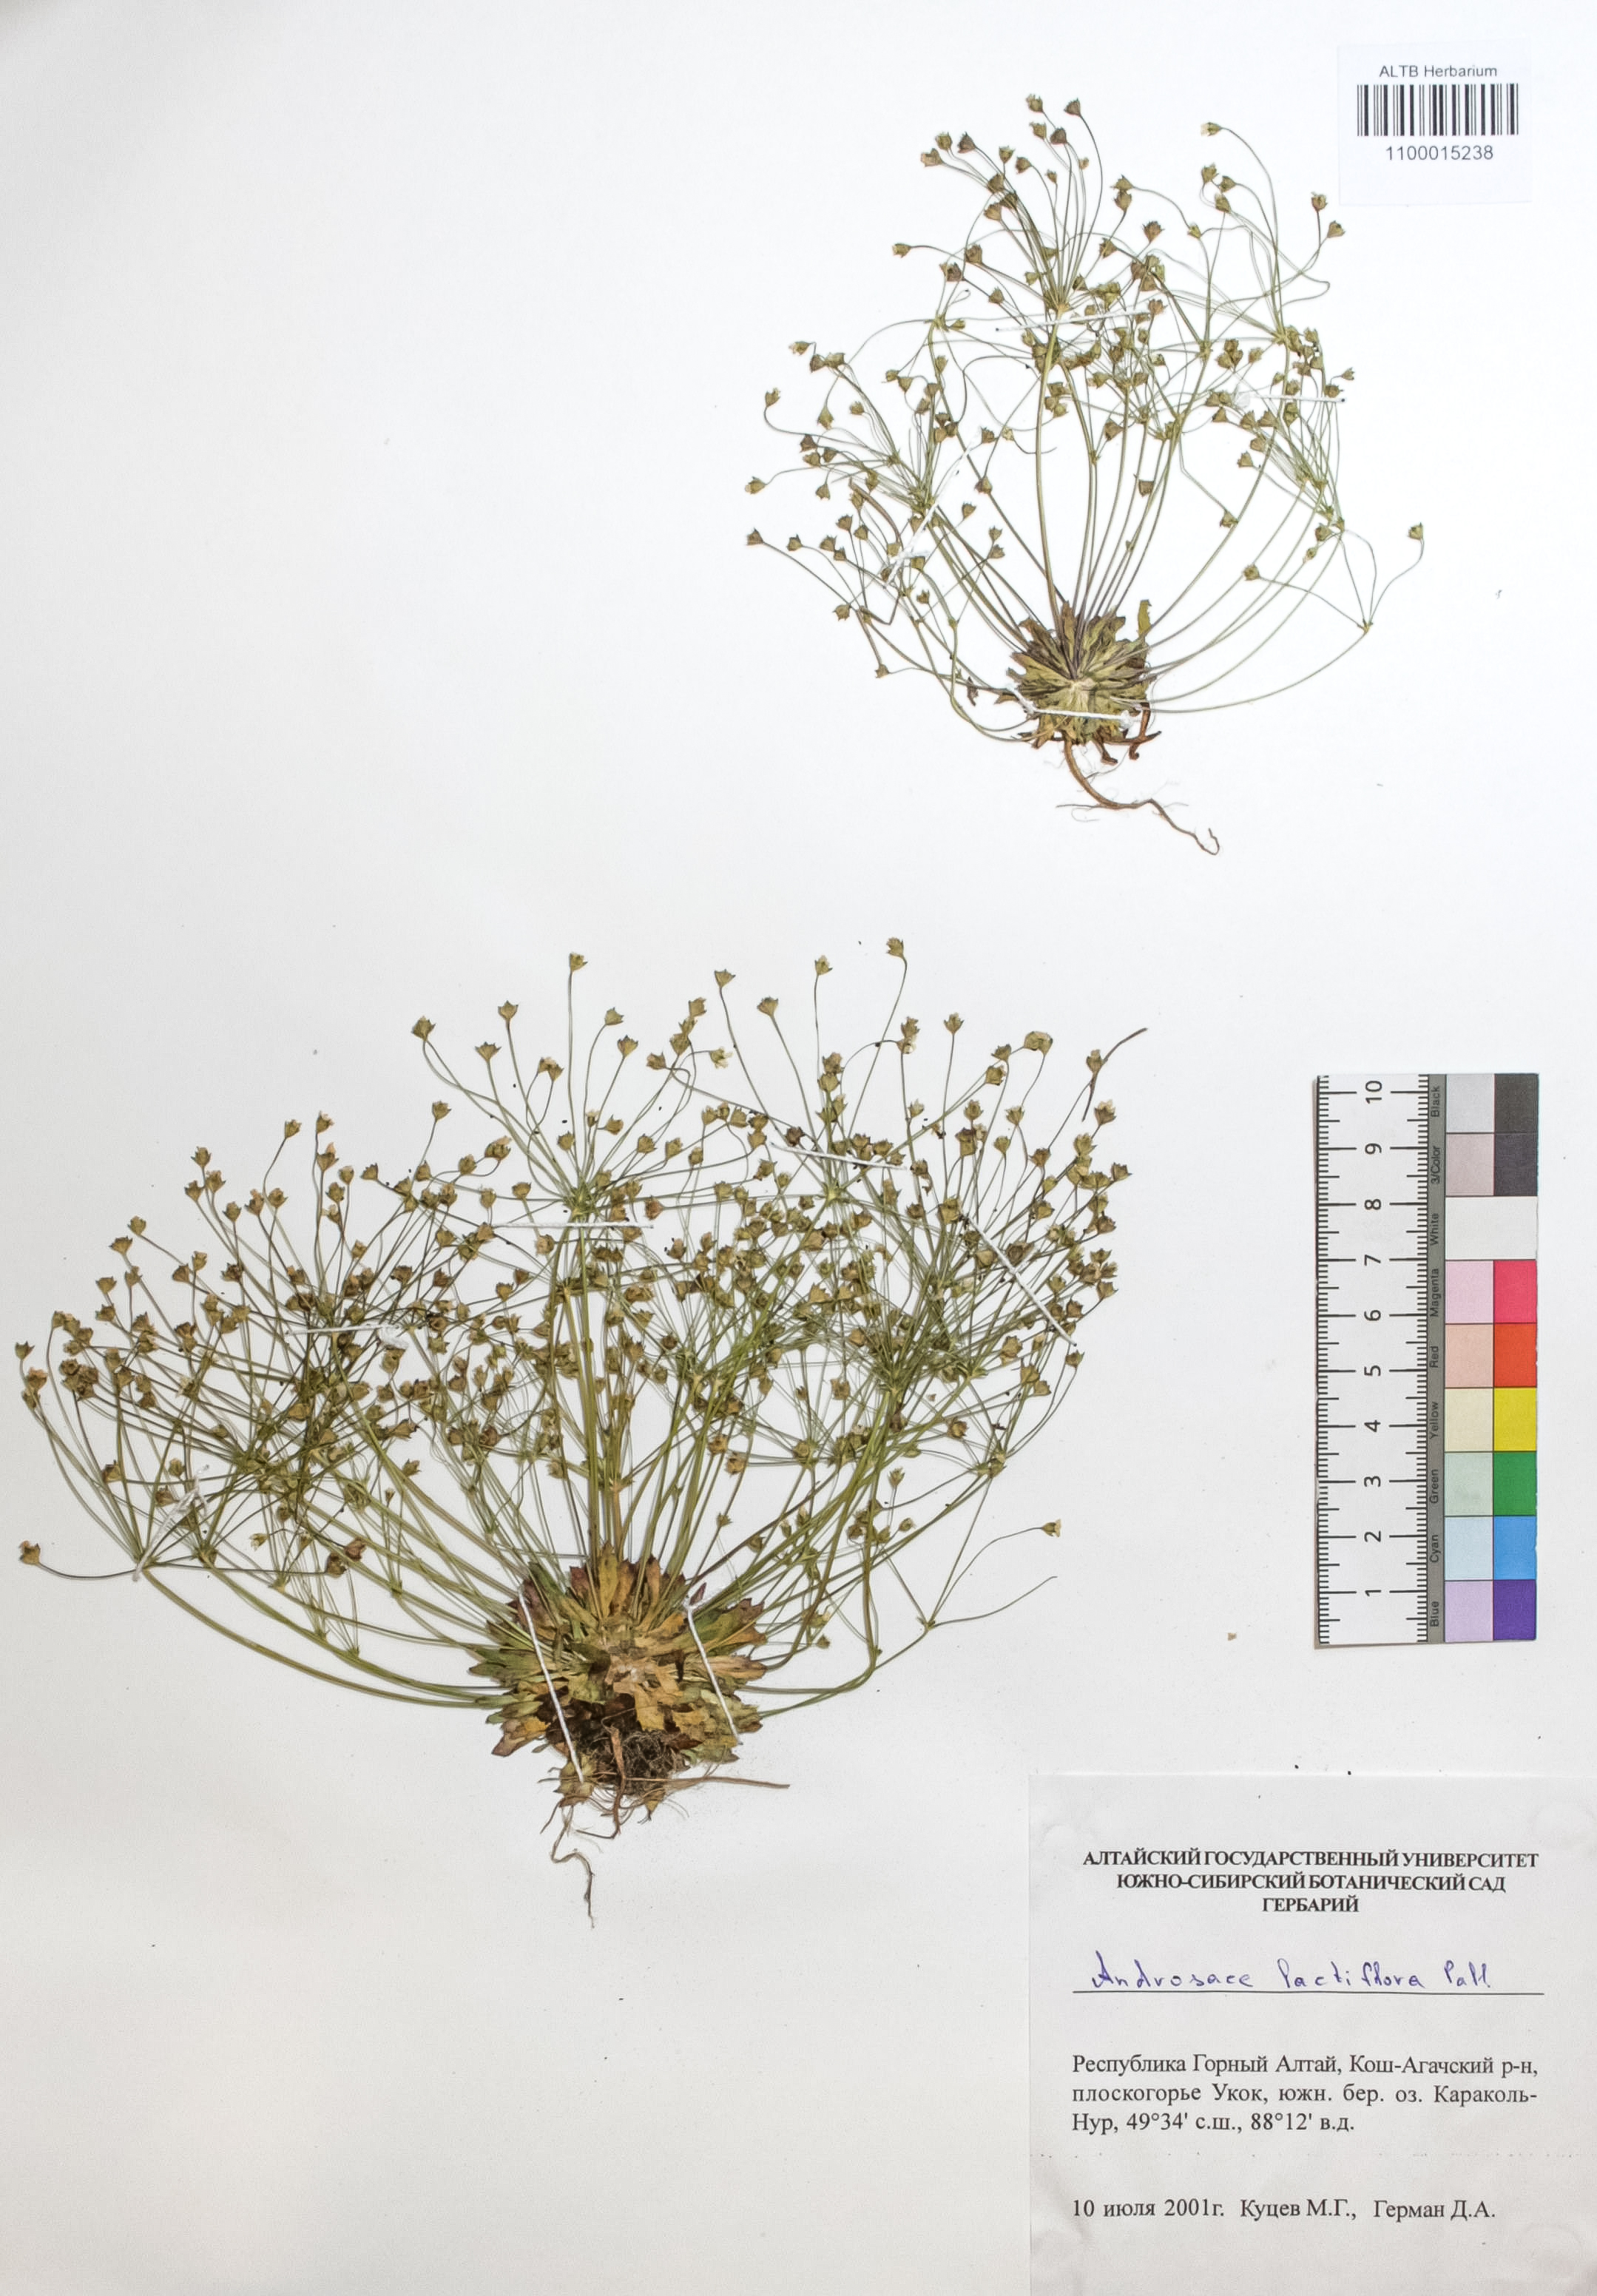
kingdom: Plantae
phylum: Tracheophyta
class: Magnoliopsida
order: Ericales
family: Primulaceae
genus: Androsace
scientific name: Androsace lactiflora
